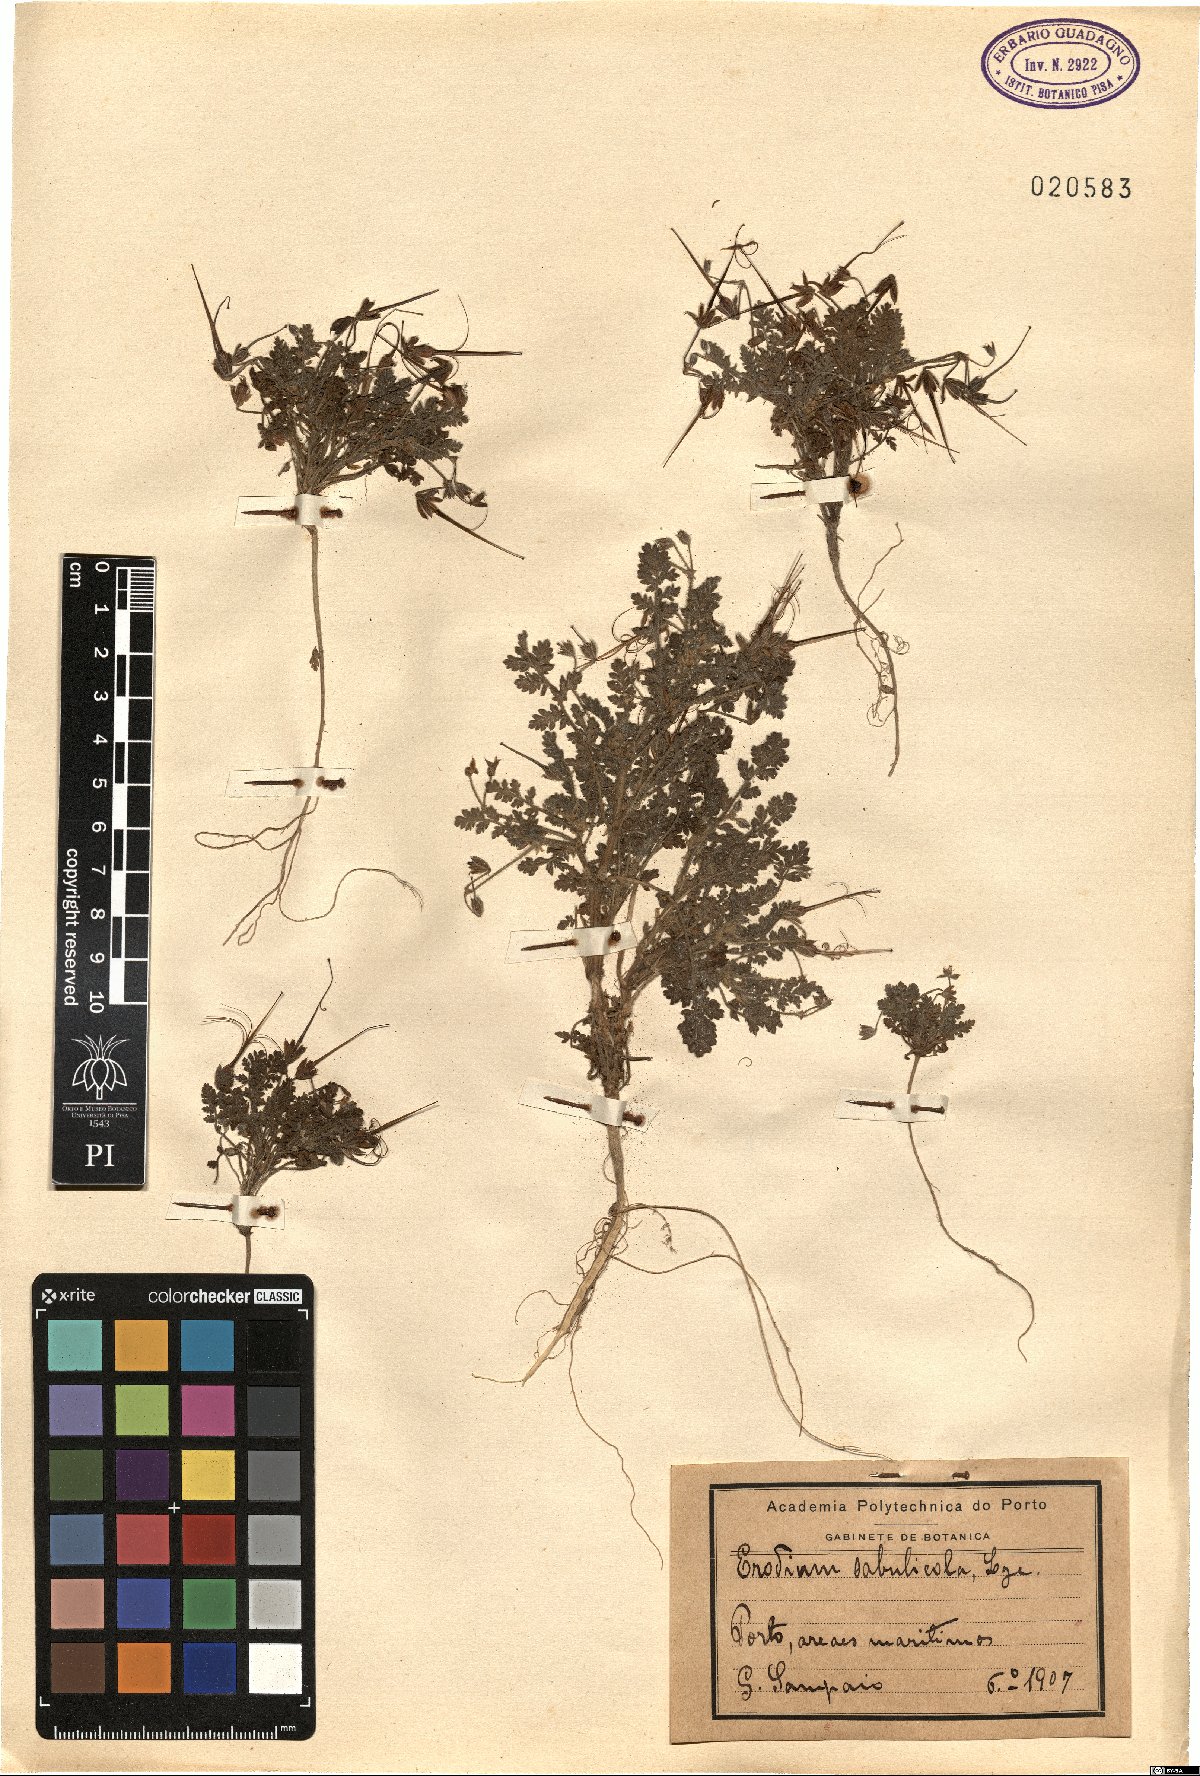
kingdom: Plantae
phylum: Tracheophyta
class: Magnoliopsida
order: Geraniales
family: Geraniaceae
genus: Erodium
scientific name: Erodium lebelii
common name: Sticky stork's-bill
